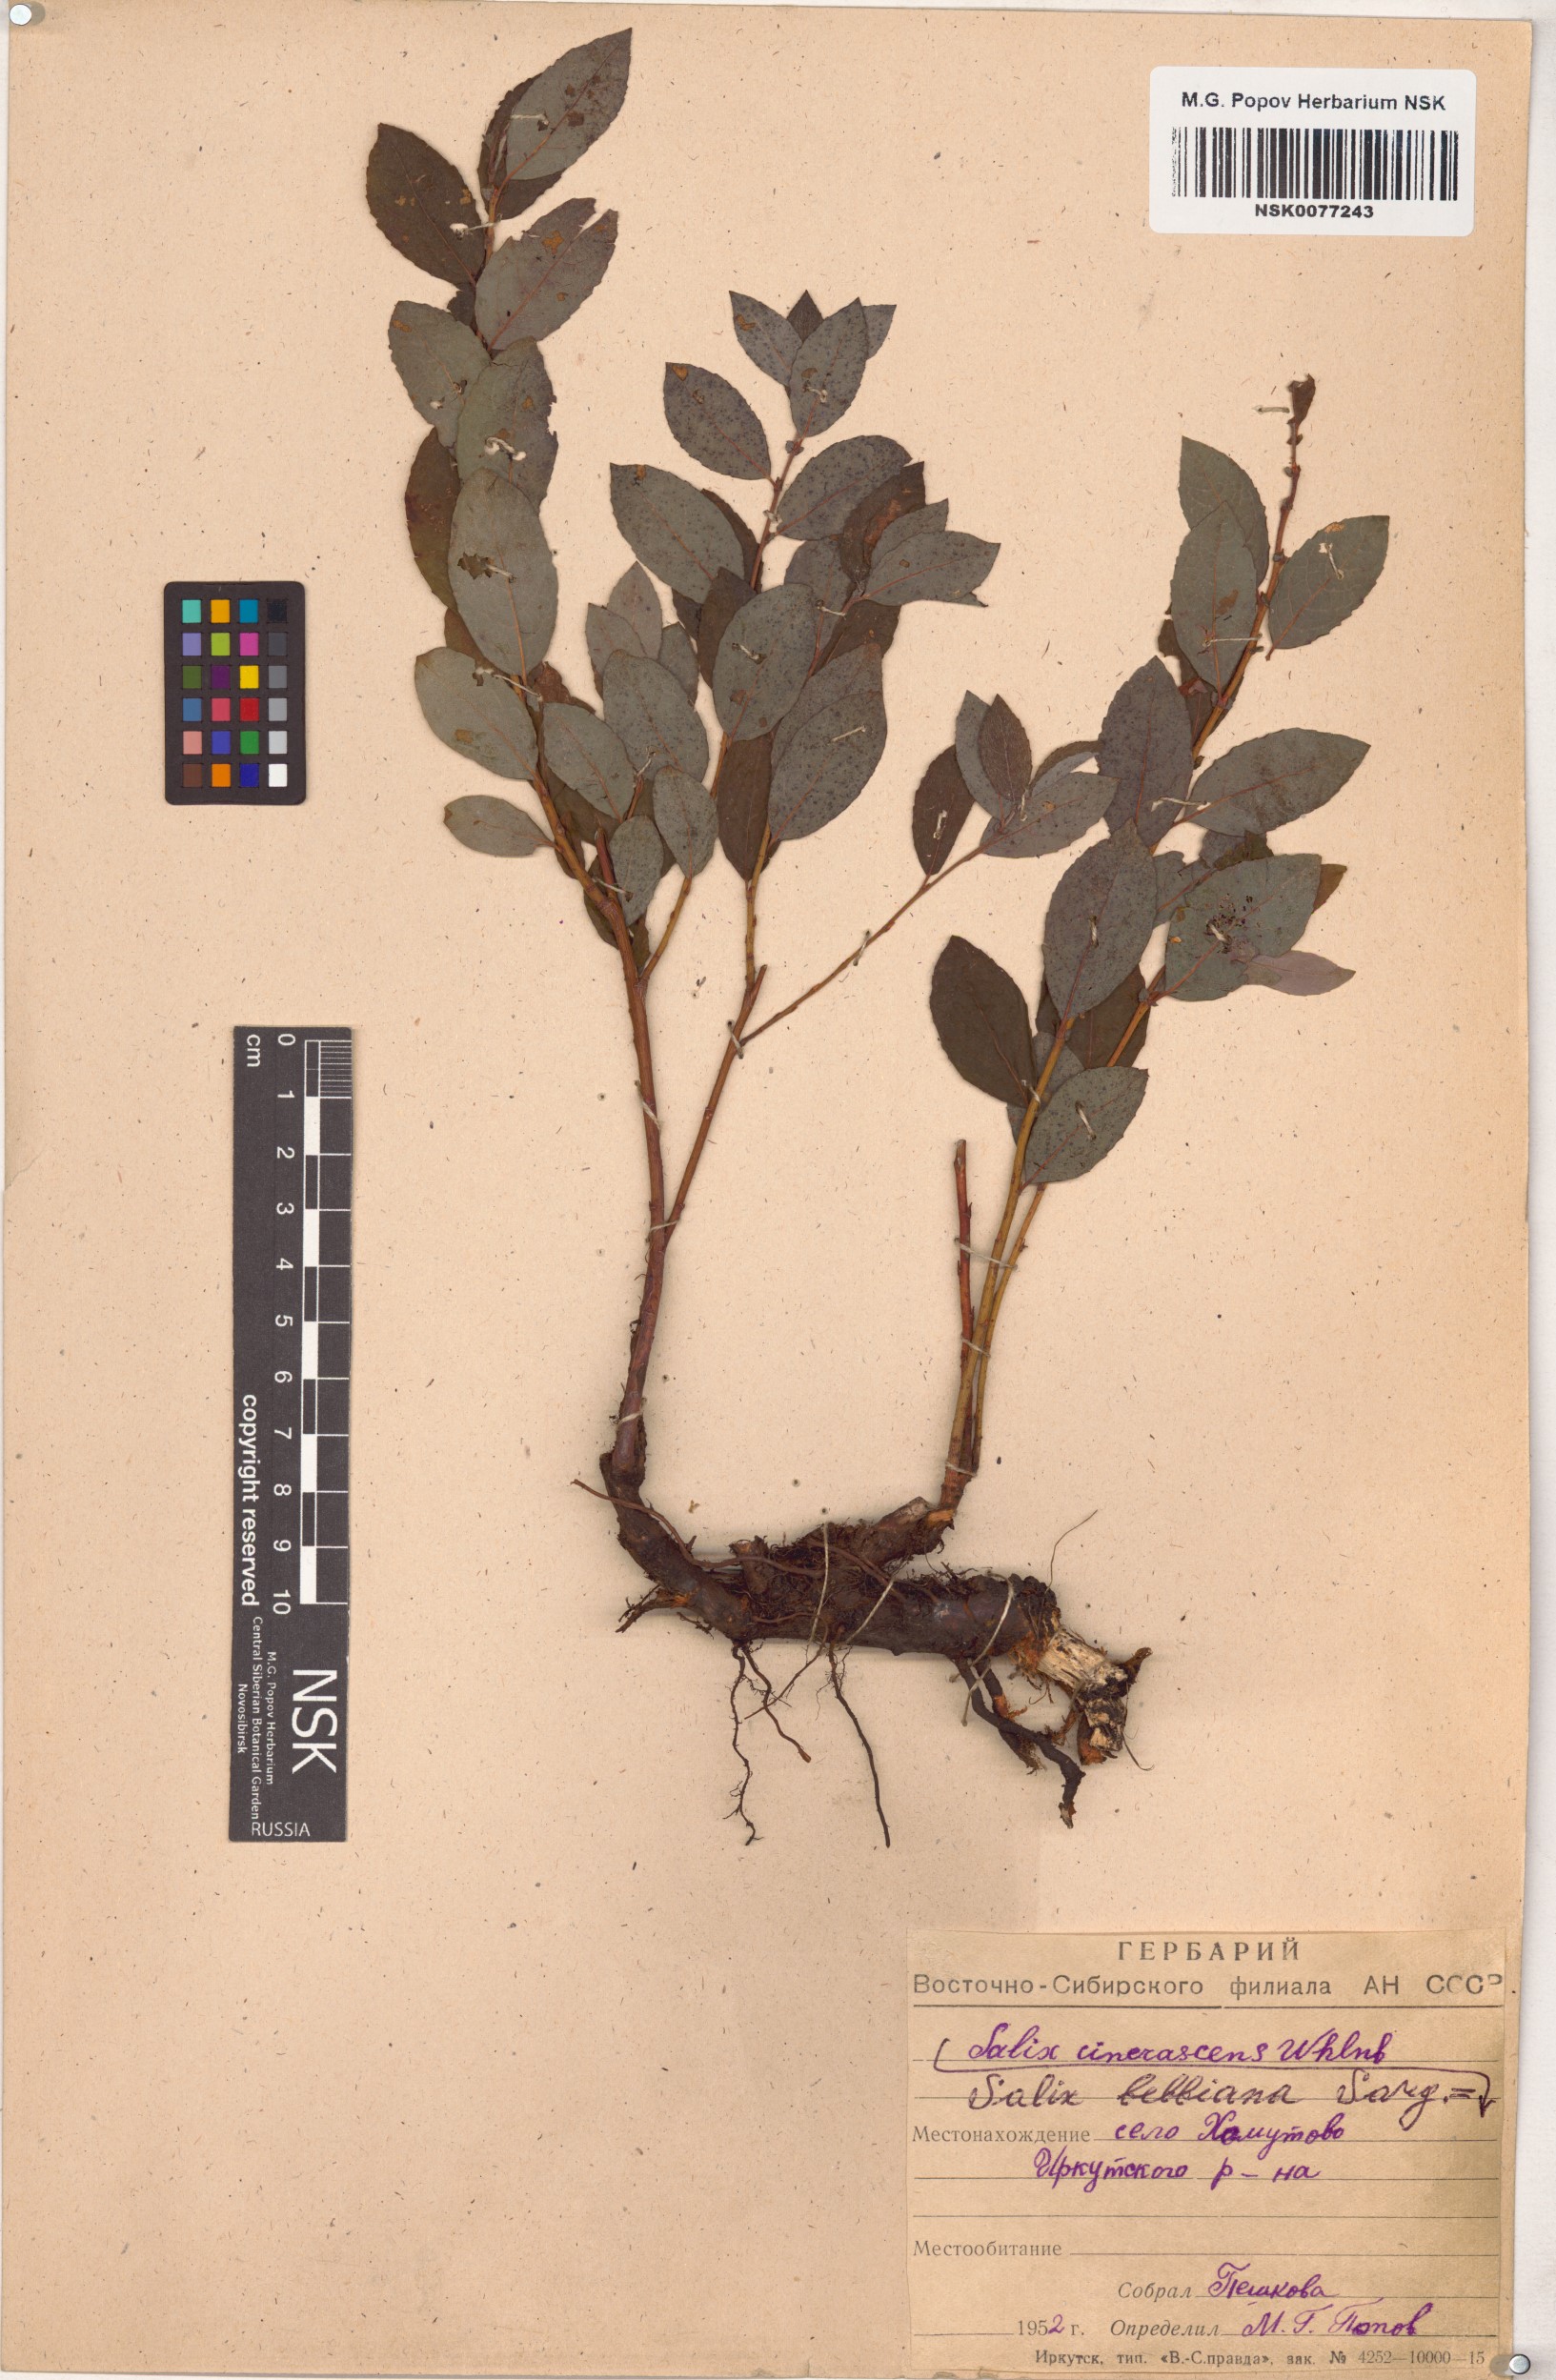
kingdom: Plantae
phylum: Tracheophyta
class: Magnoliopsida
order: Malpighiales
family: Salicaceae
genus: Salix
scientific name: Salix bebbiana
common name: Bebb's willow
